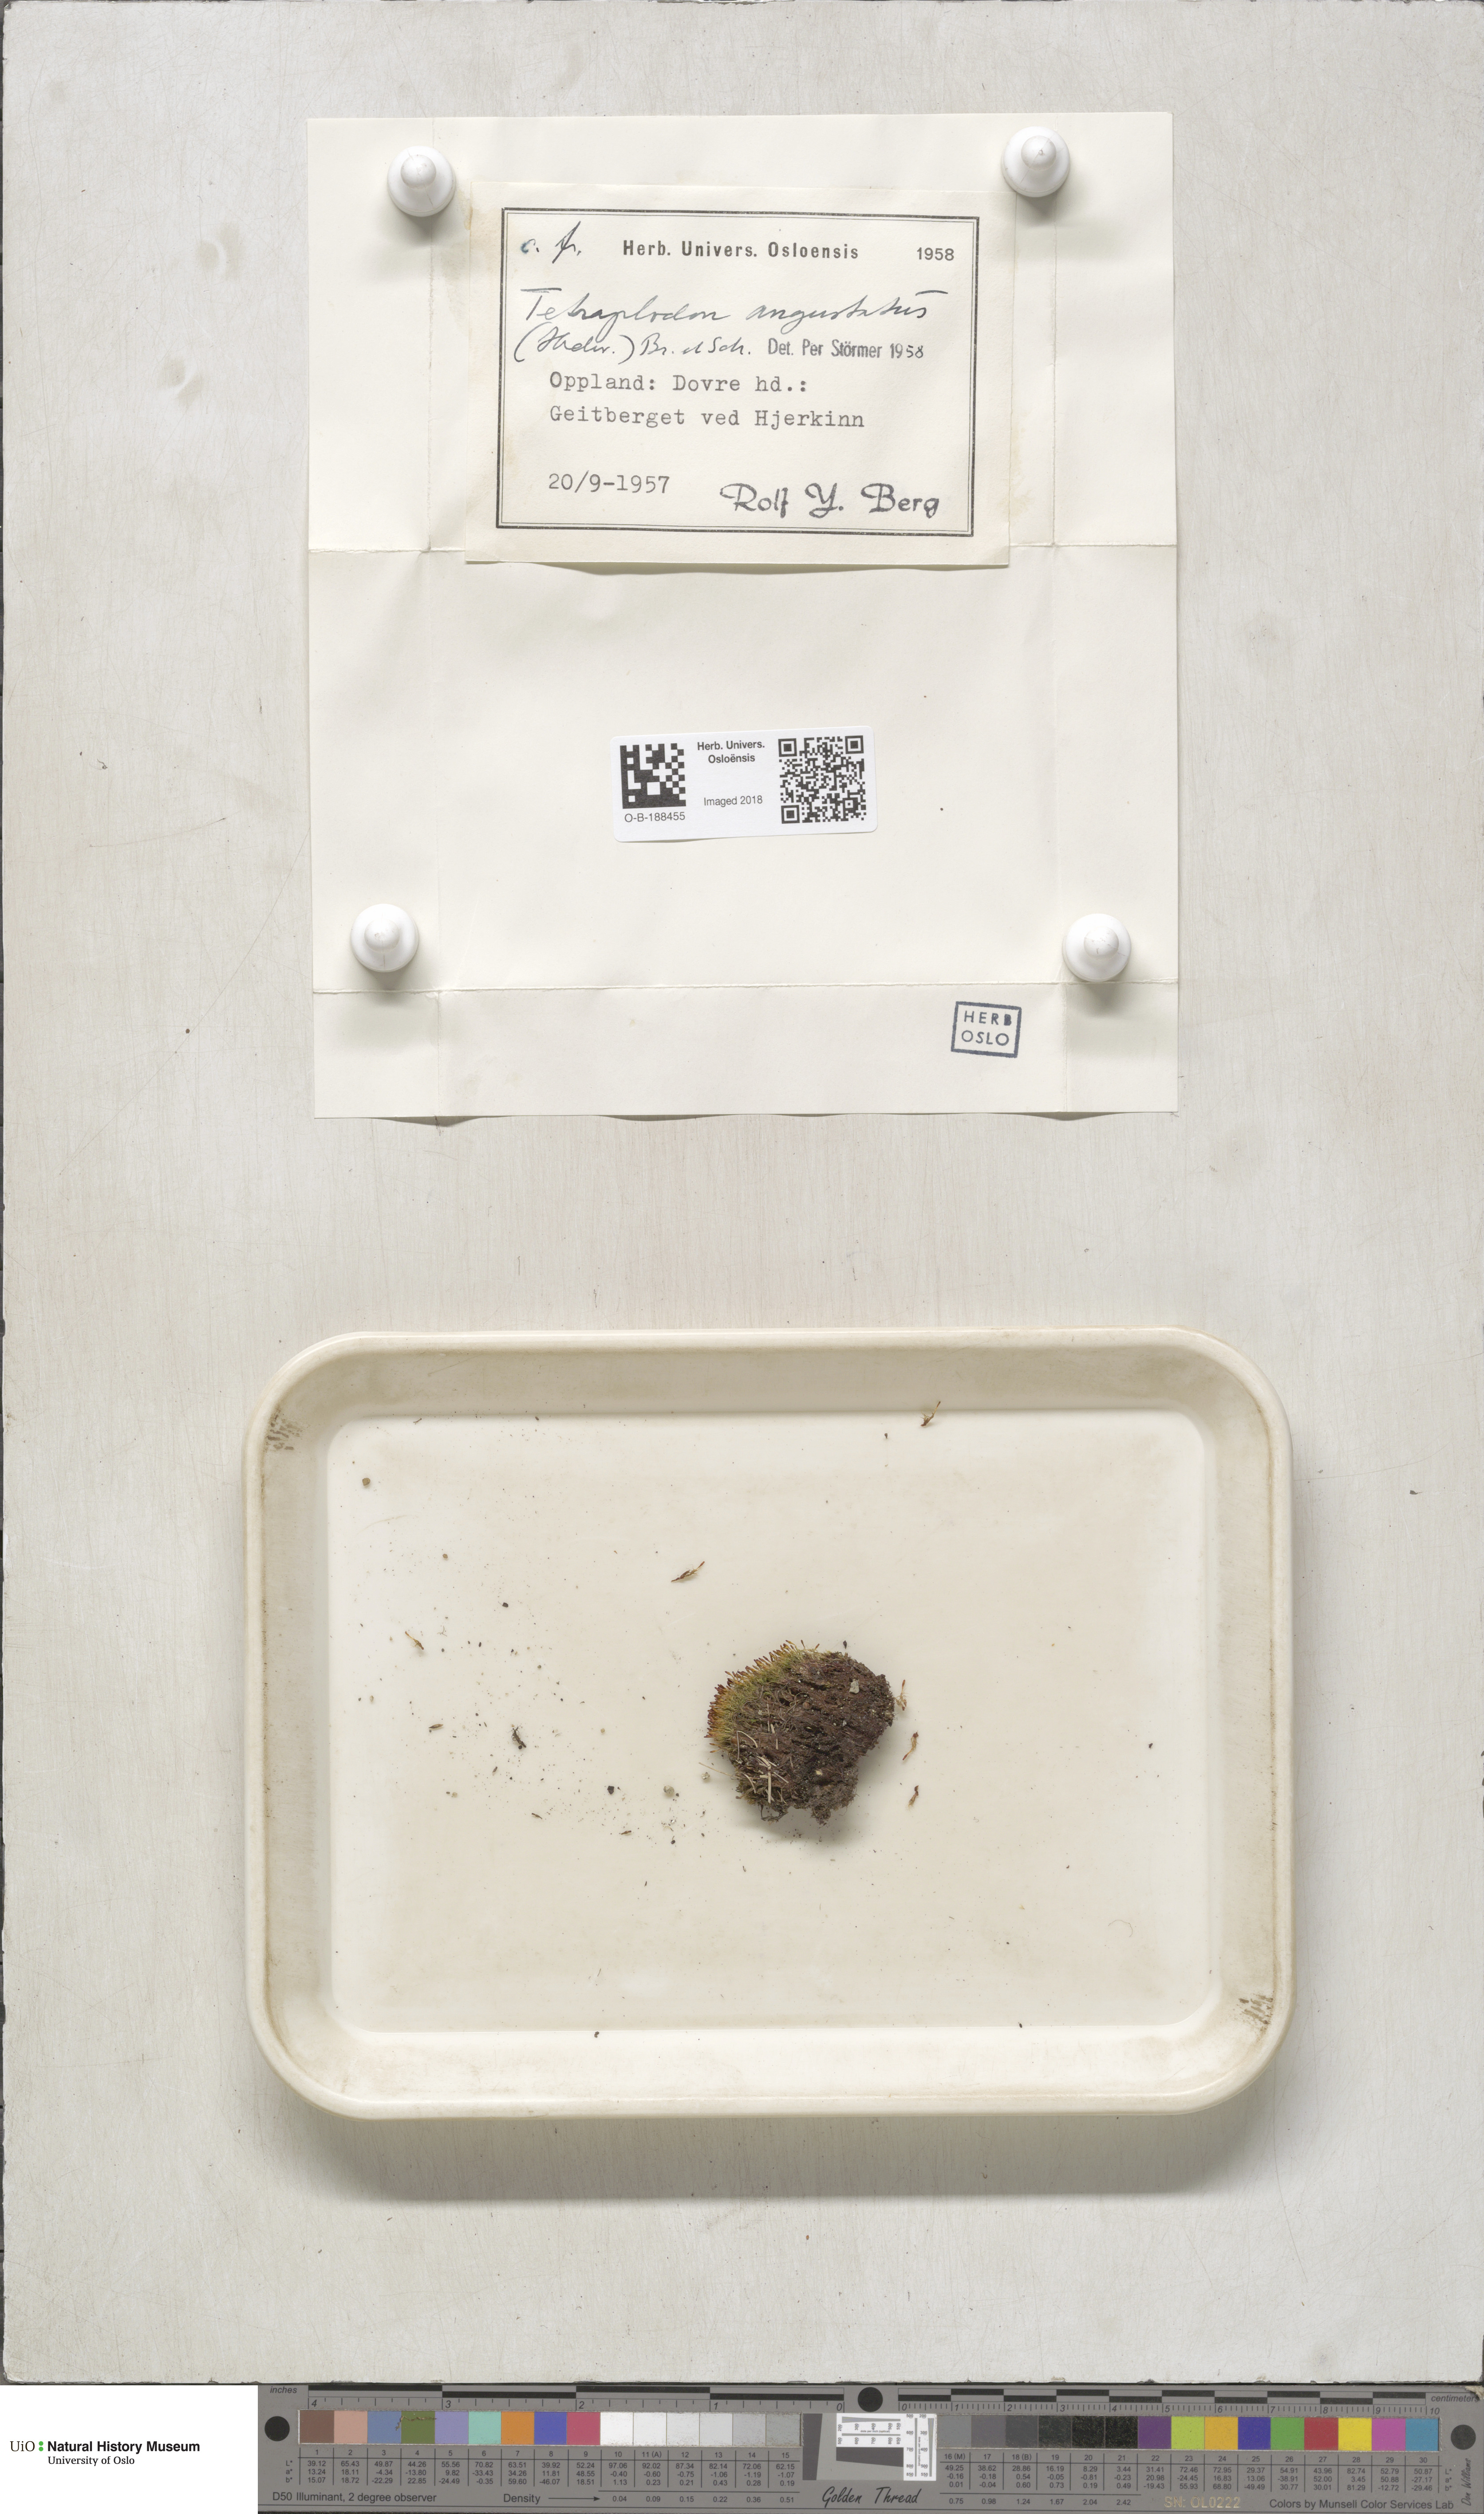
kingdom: Plantae
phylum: Bryophyta
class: Bryopsida
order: Splachnales
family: Splachnaceae
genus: Tetraplodon
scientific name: Tetraplodon angustatus
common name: Narrow cruet-moss
